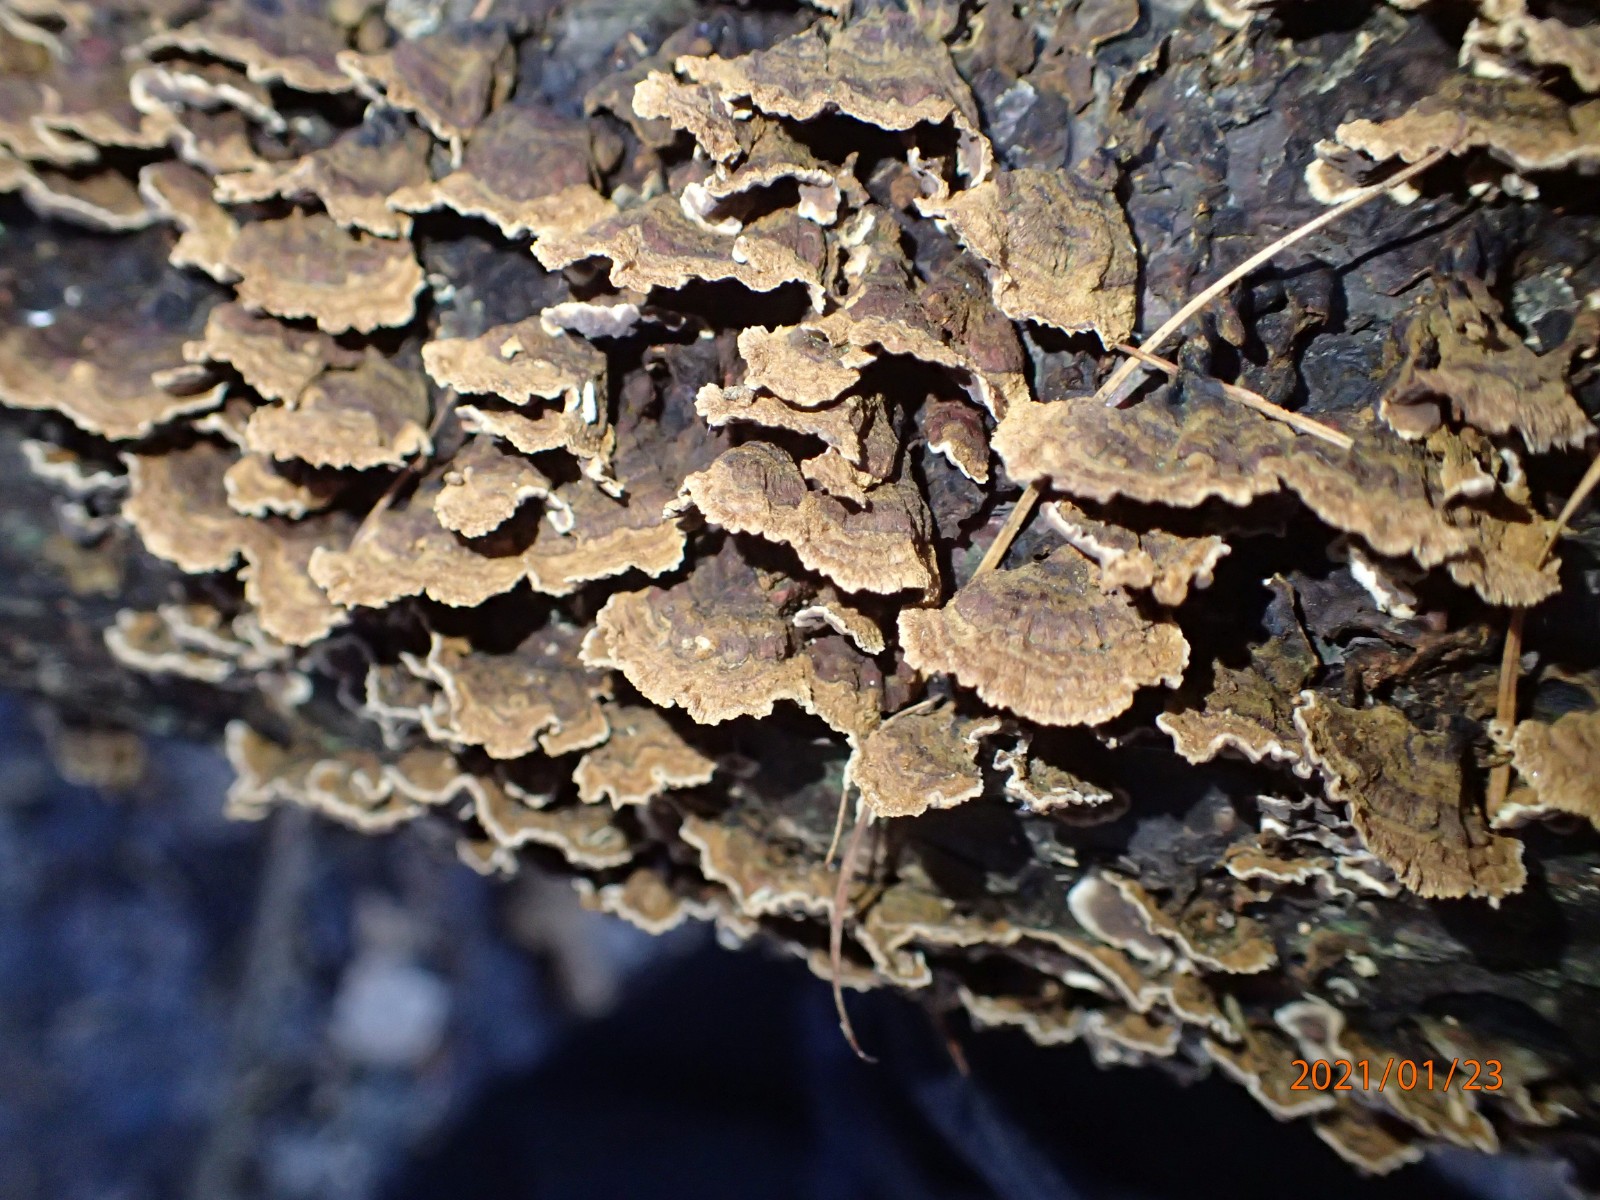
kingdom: Fungi
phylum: Basidiomycota
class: Agaricomycetes
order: Hymenochaetales
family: Hymenochaetaceae
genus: Hydnoporia
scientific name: Hydnoporia tabacina
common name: tobaksbrun ruslædersvamp
